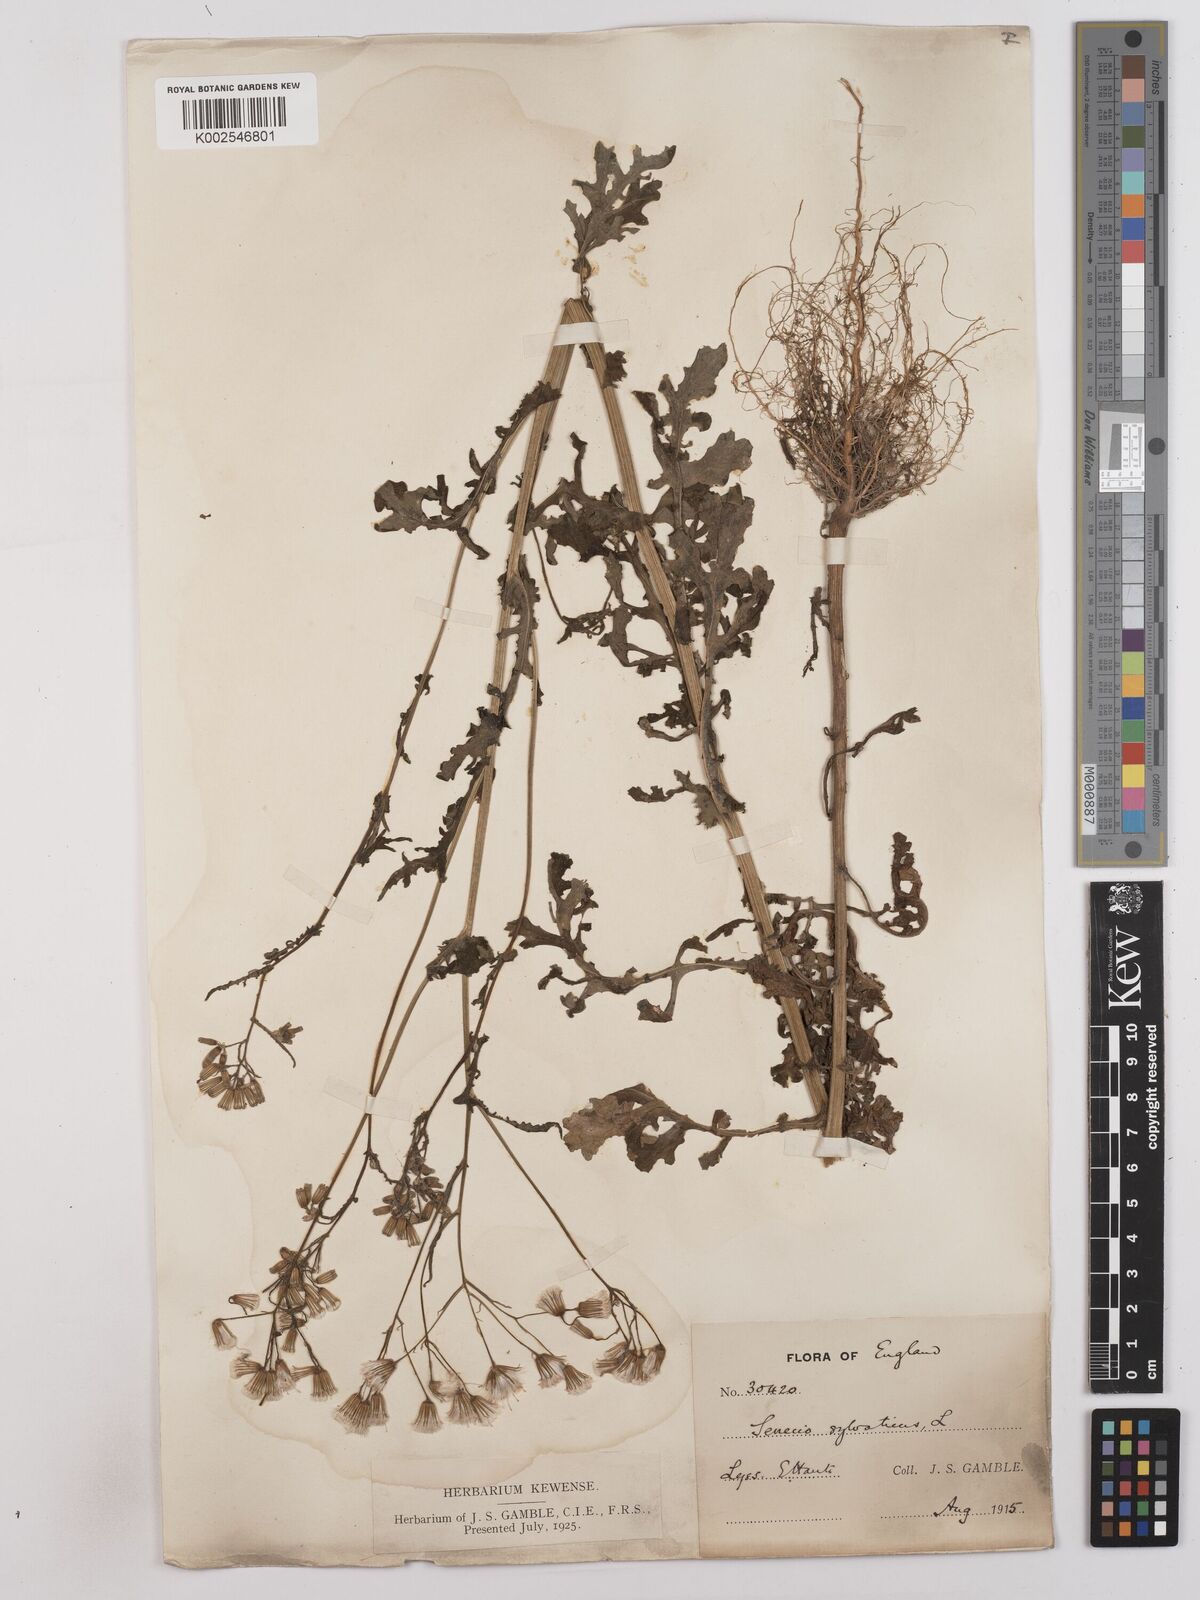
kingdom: Plantae
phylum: Tracheophyta
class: Magnoliopsida
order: Asterales
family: Asteraceae
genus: Senecio
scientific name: Senecio sylvaticus
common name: Woodland ragwort
